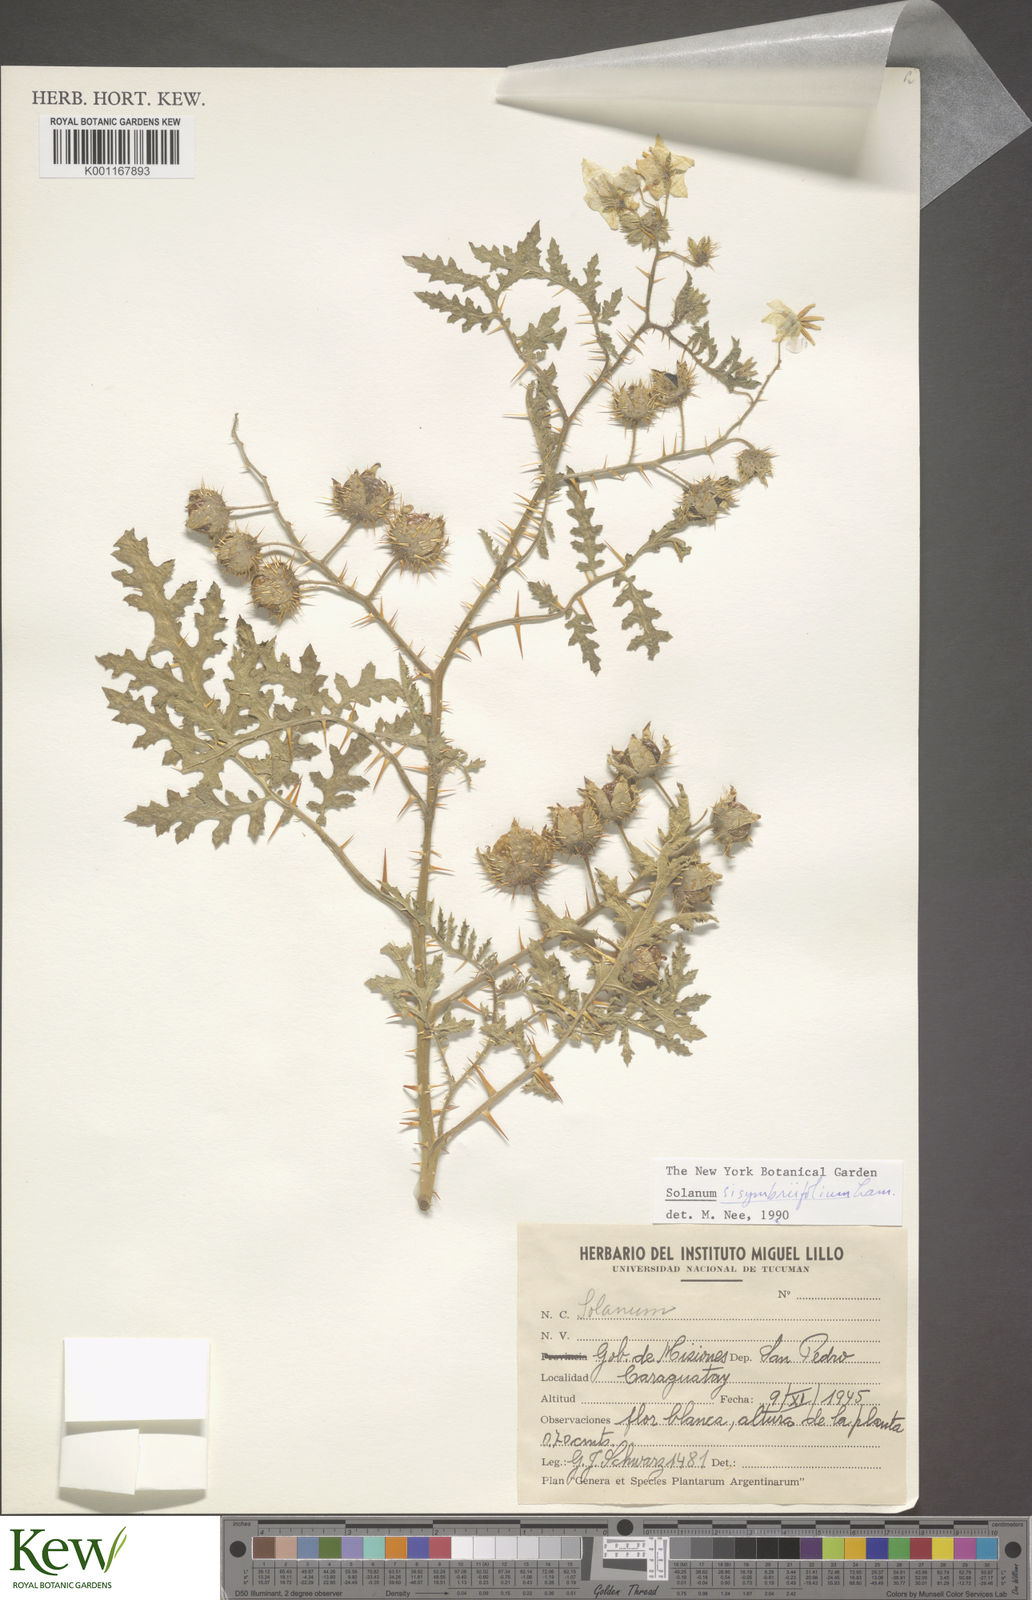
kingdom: Plantae
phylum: Tracheophyta
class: Magnoliopsida
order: Solanales
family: Solanaceae
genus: Solanum
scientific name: Solanum sisymbriifolium
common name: Red buffalo-bur
